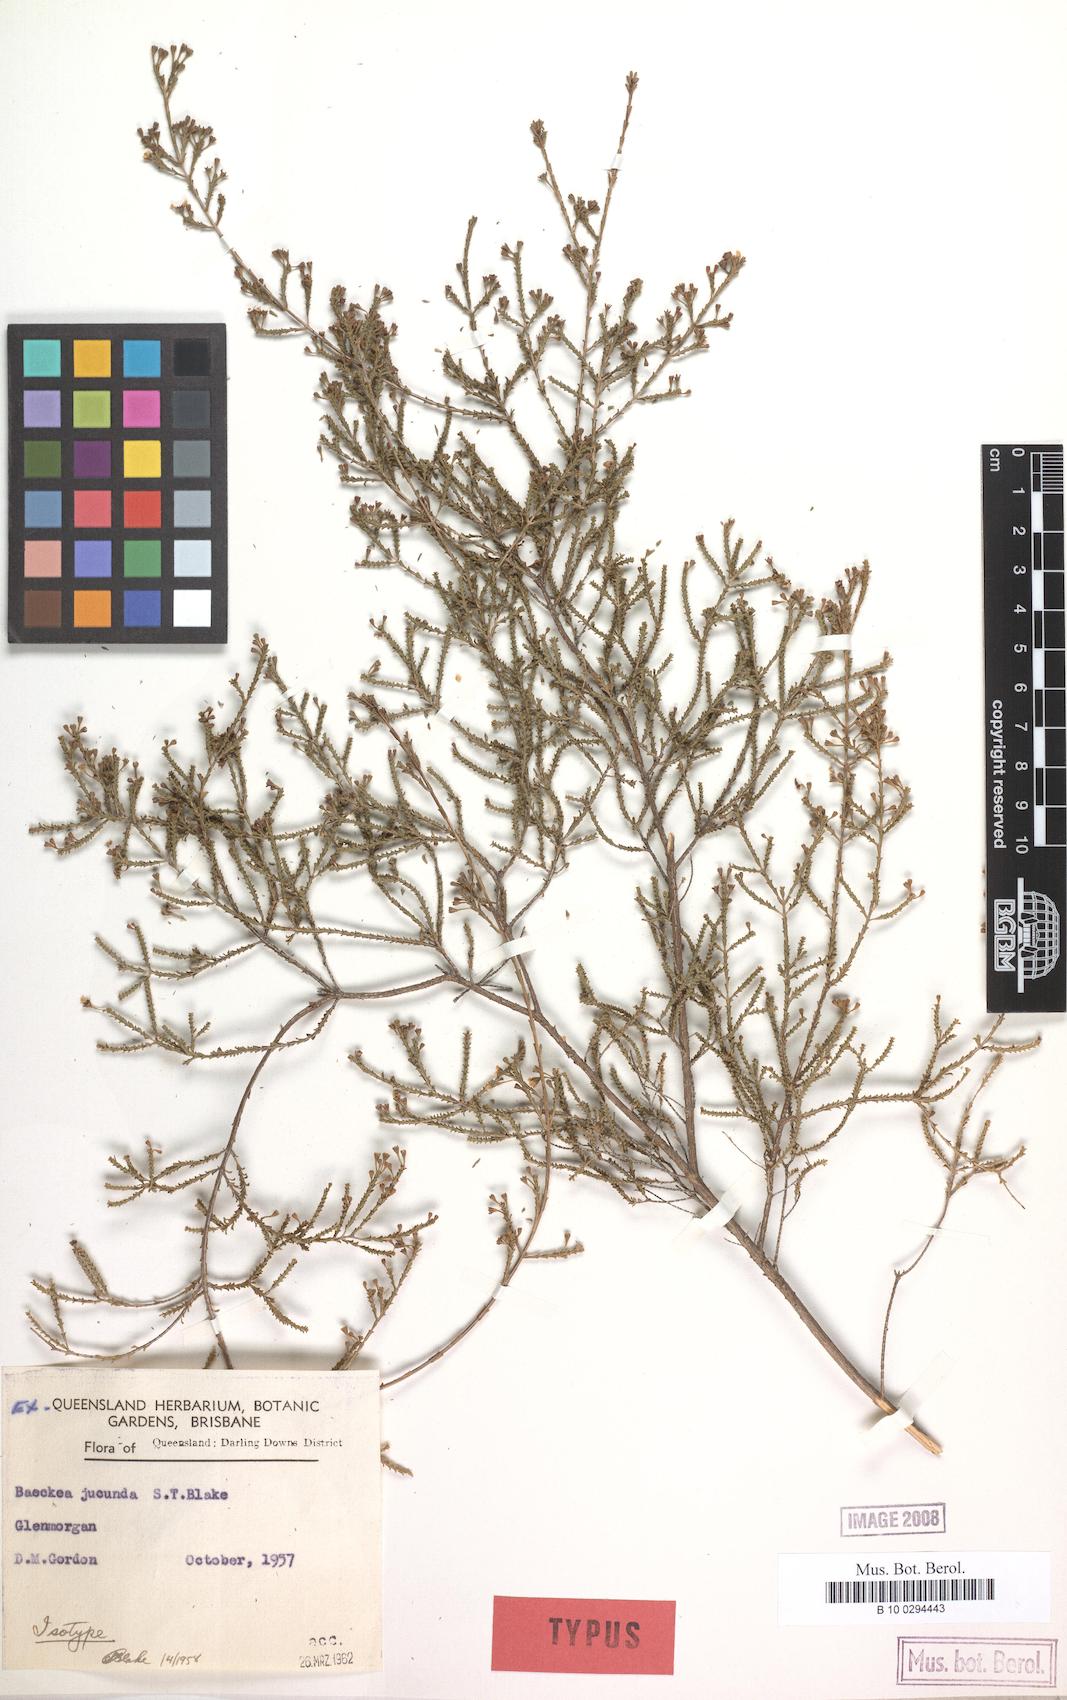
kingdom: Plantae
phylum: Tracheophyta
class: Magnoliopsida
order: Myrtales
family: Myrtaceae
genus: Kardomia
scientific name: Kardomia jucunda
